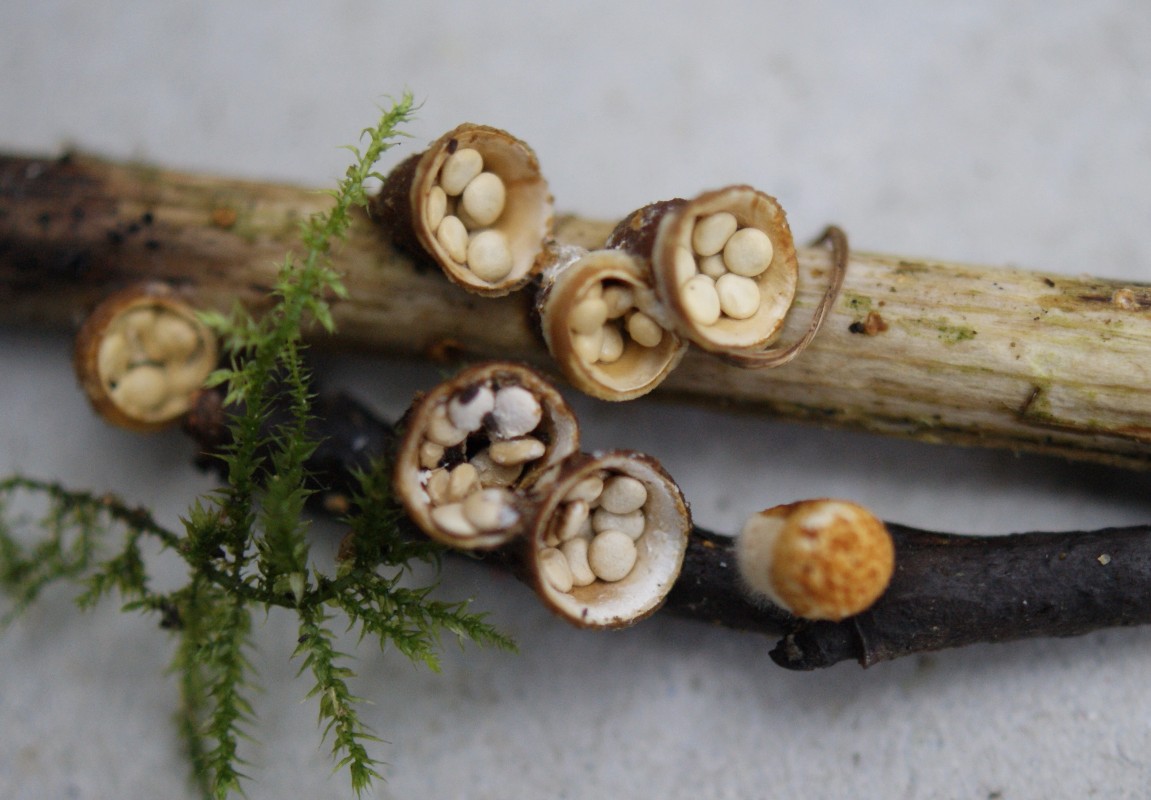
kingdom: Fungi
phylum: Basidiomycota
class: Agaricomycetes
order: Agaricales
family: Nidulariaceae
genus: Crucibulum
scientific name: Crucibulum crucibuliforme
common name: krukkesvamp
